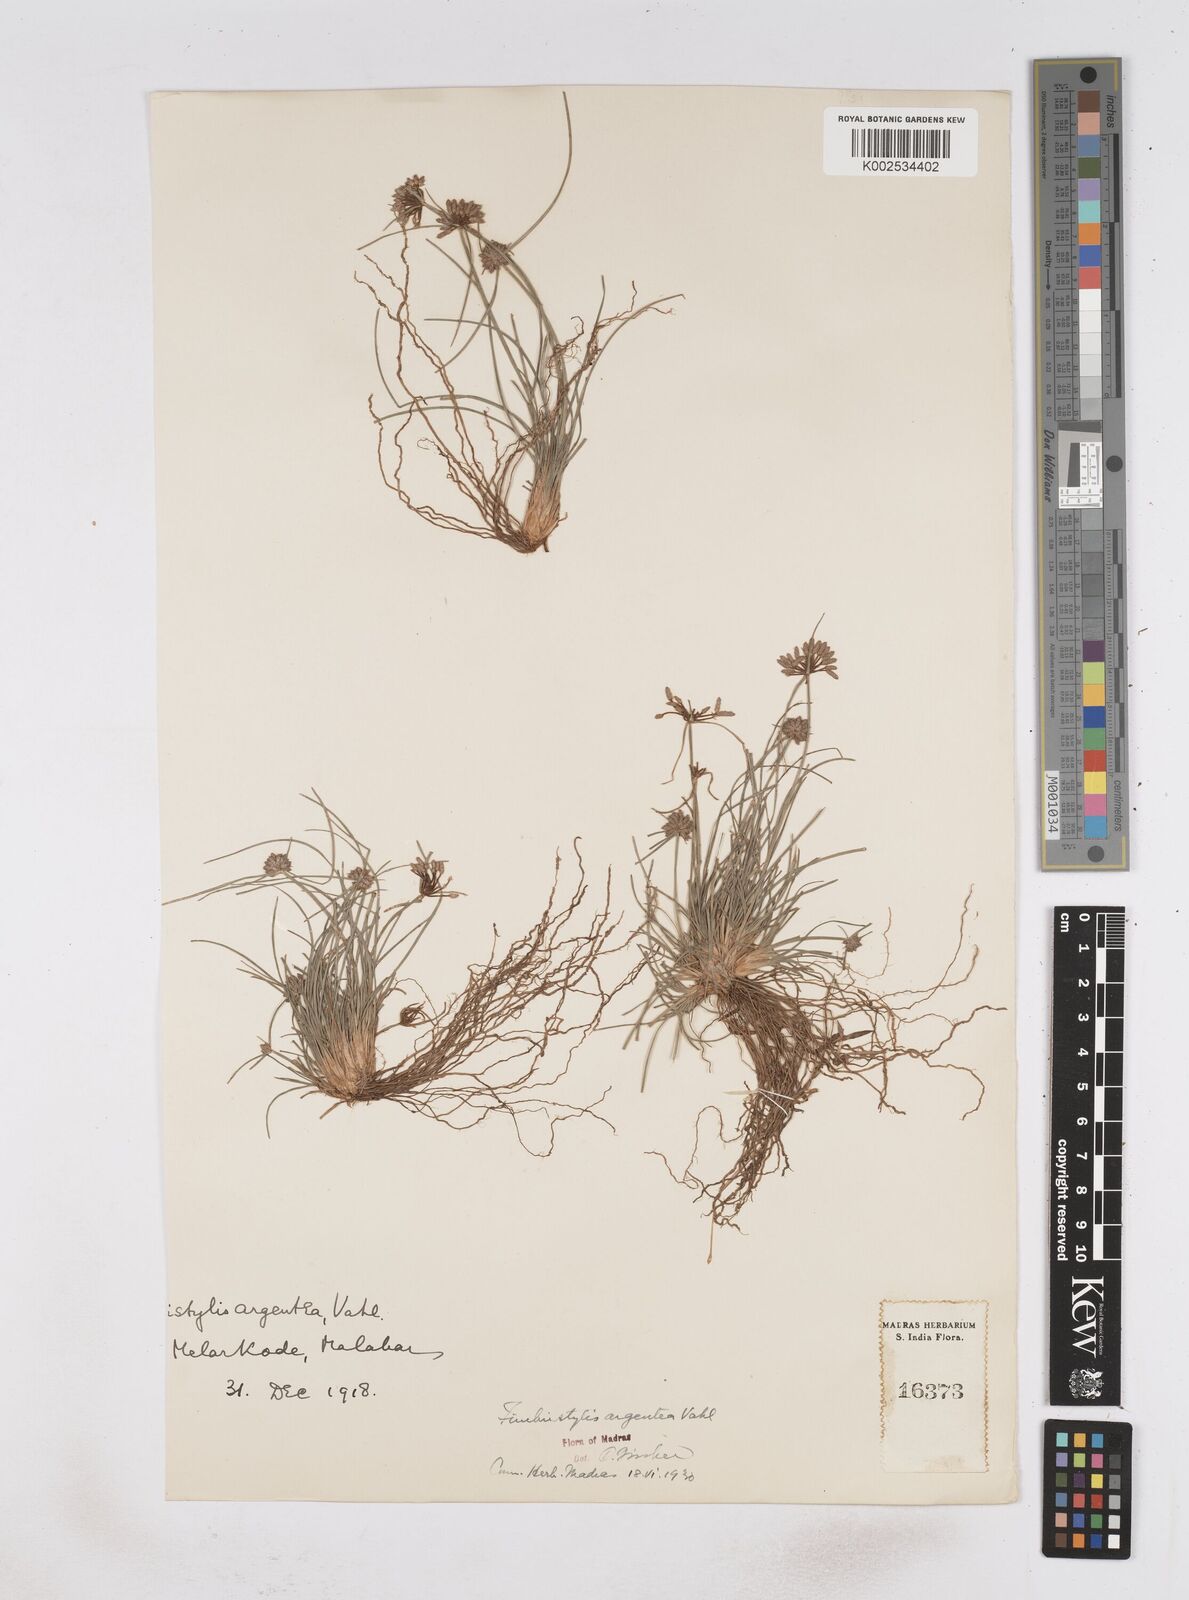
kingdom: Plantae
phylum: Tracheophyta
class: Liliopsida
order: Poales
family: Cyperaceae
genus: Fimbristylis
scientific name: Fimbristylis argentea
